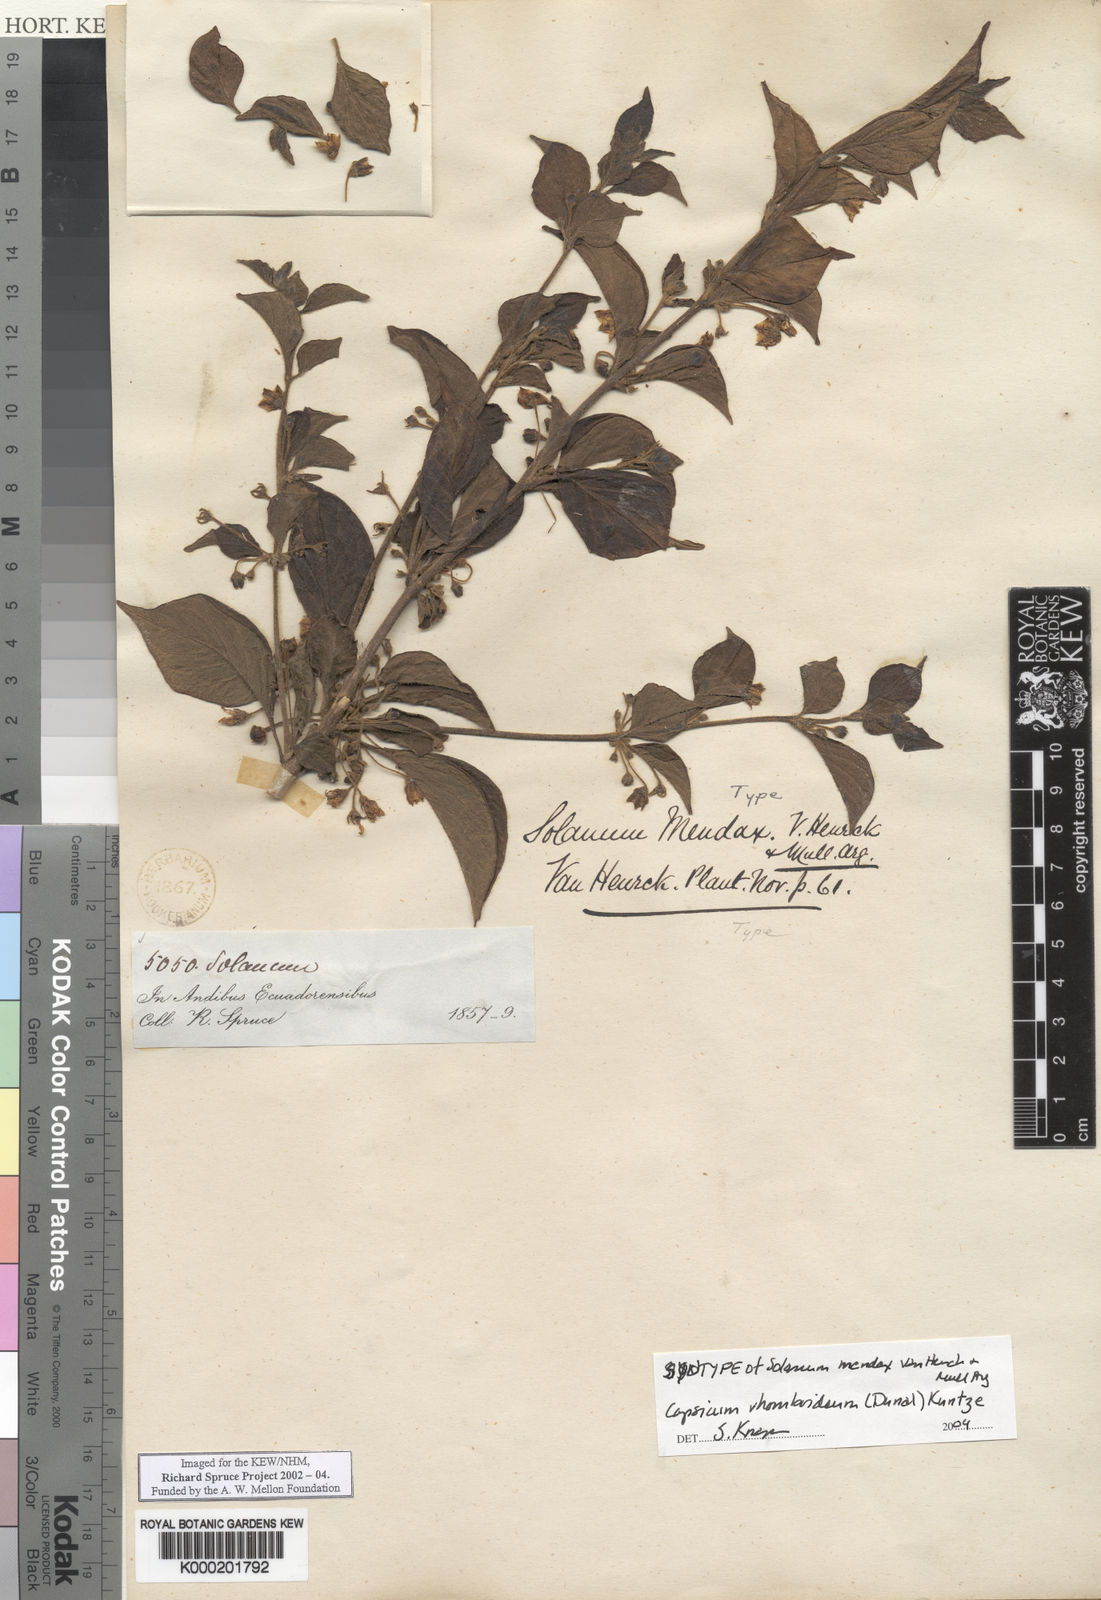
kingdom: Plantae
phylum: Tracheophyta
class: Magnoliopsida
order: Solanales
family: Solanaceae
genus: Brachistus
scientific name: Brachistus
